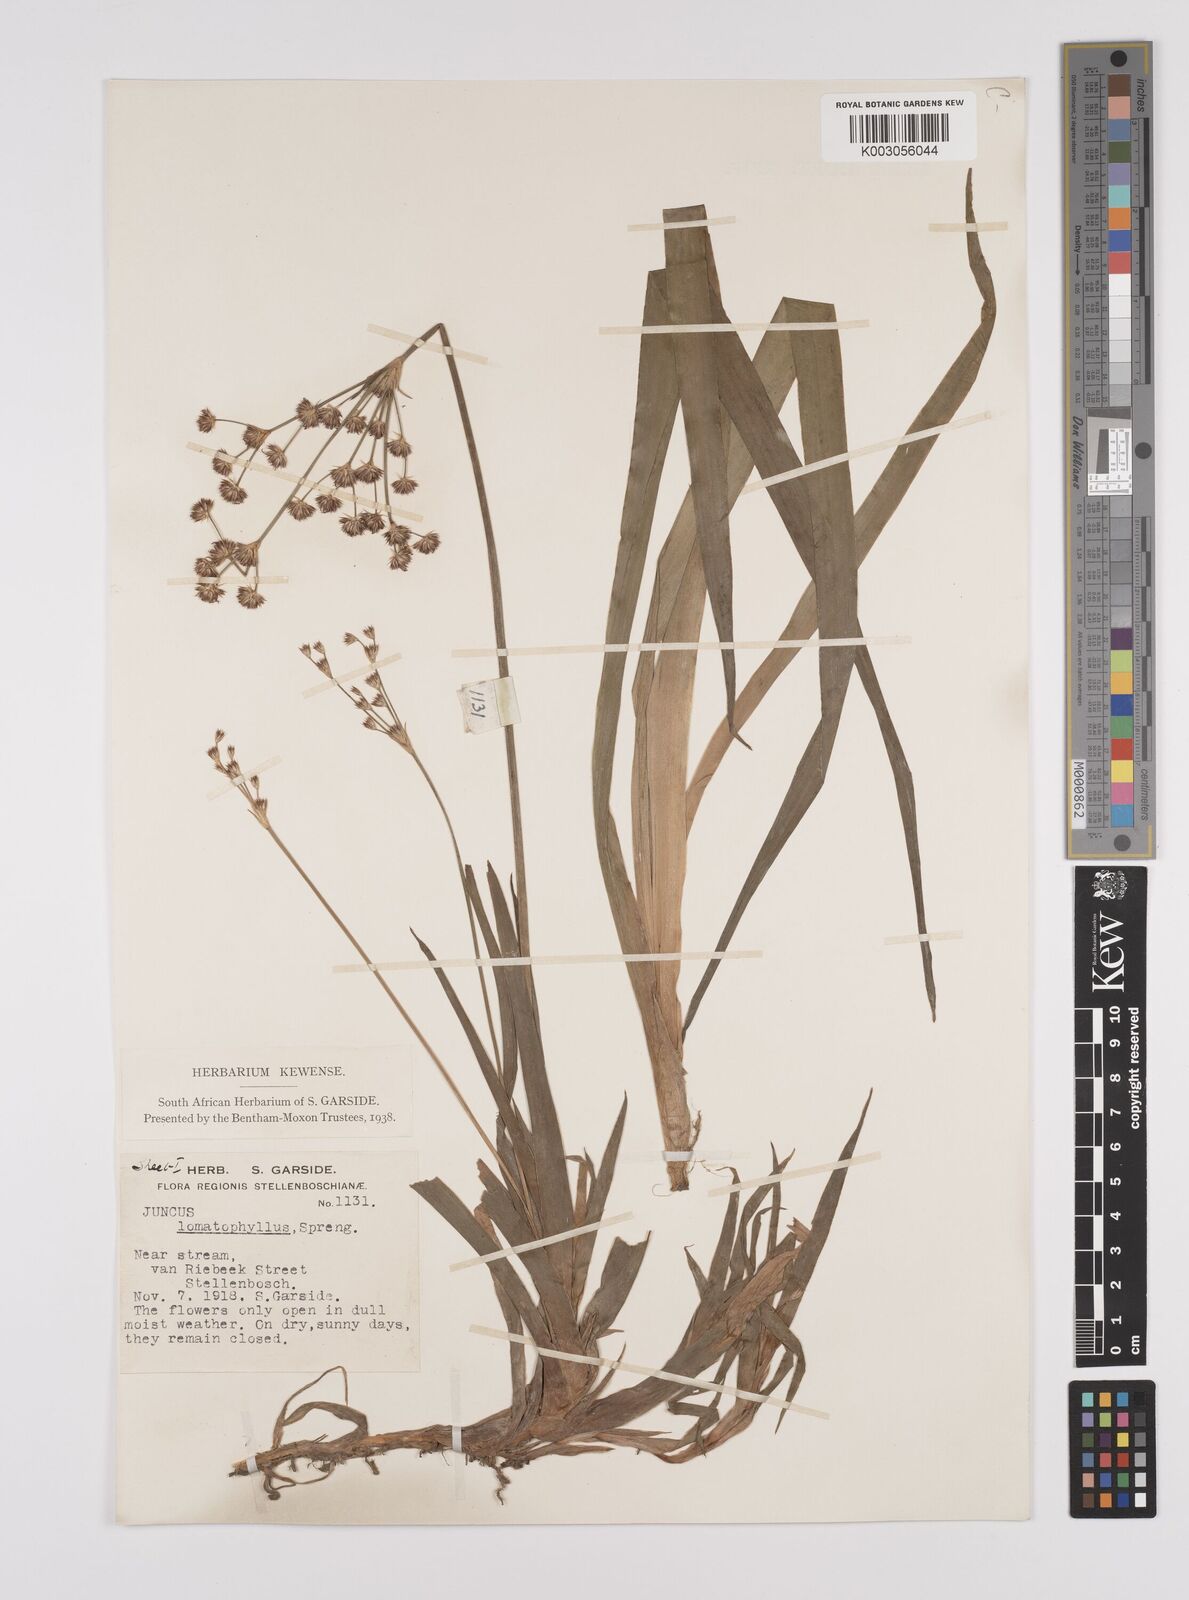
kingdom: Plantae
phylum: Tracheophyta
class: Liliopsida
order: Poales
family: Juncaceae
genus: Juncus
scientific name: Juncus lomatophyllus
